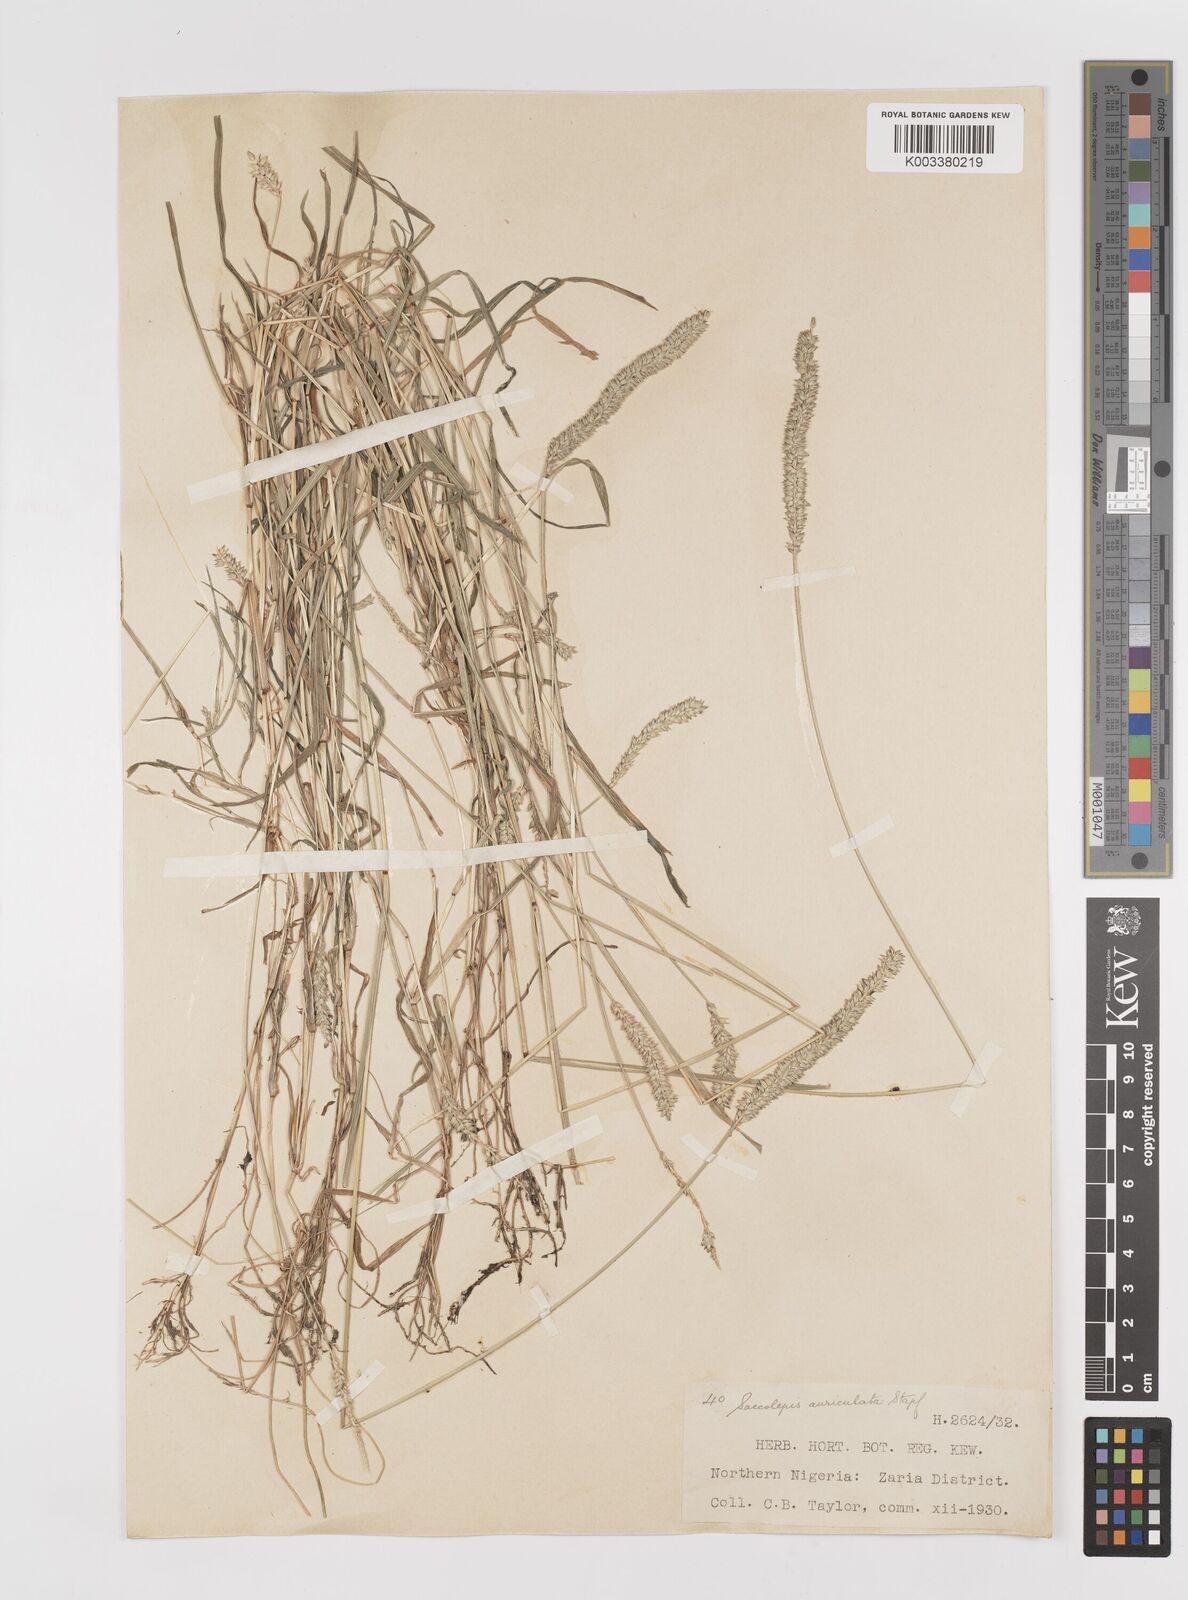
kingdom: Plantae
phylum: Tracheophyta
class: Liliopsida
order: Poales
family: Poaceae
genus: Sacciolepis
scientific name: Sacciolepis indica
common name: Glenwoodgrass
